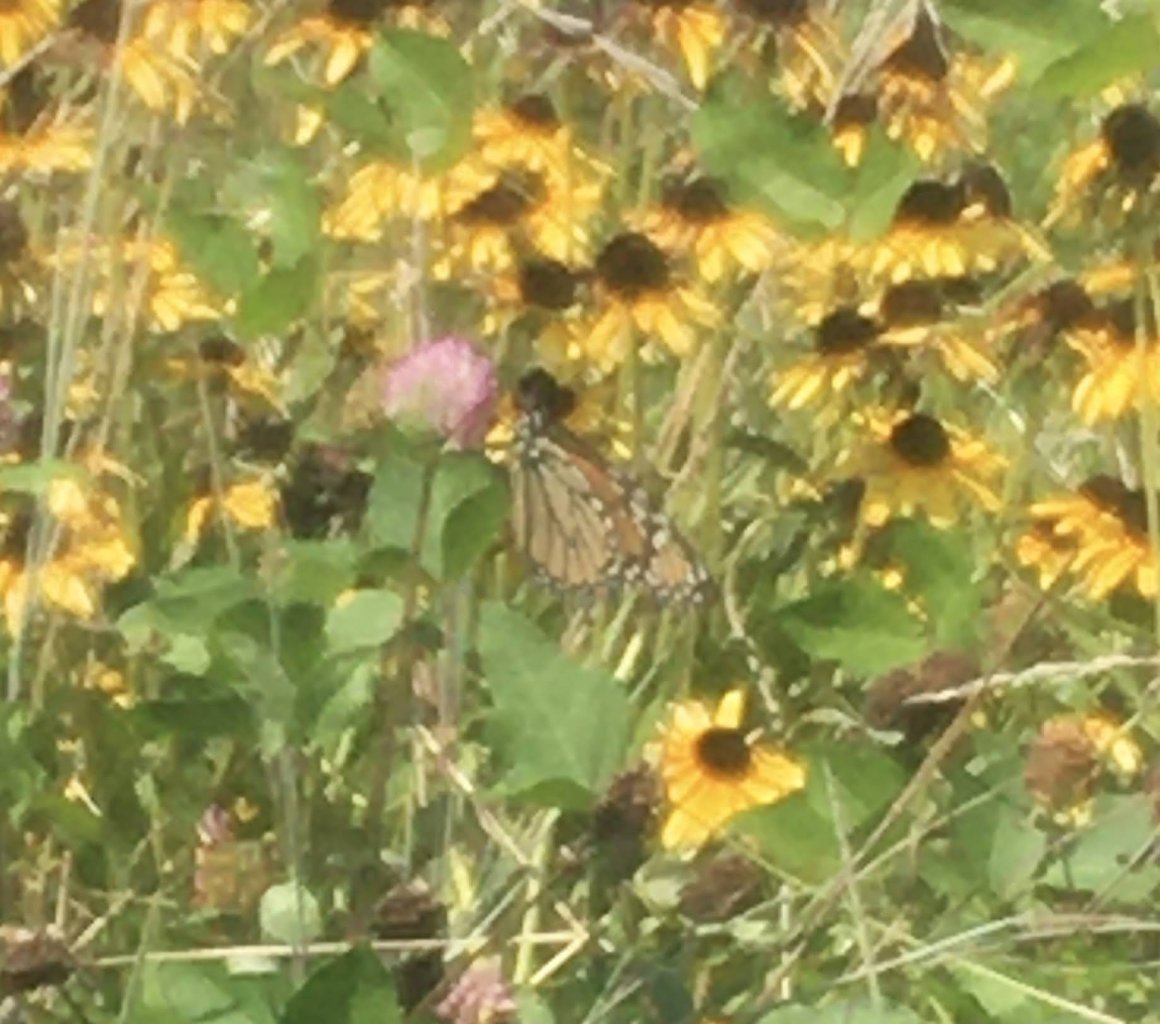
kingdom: Animalia
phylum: Arthropoda
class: Insecta
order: Lepidoptera
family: Nymphalidae
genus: Danaus
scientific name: Danaus plexippus
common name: Monarch
